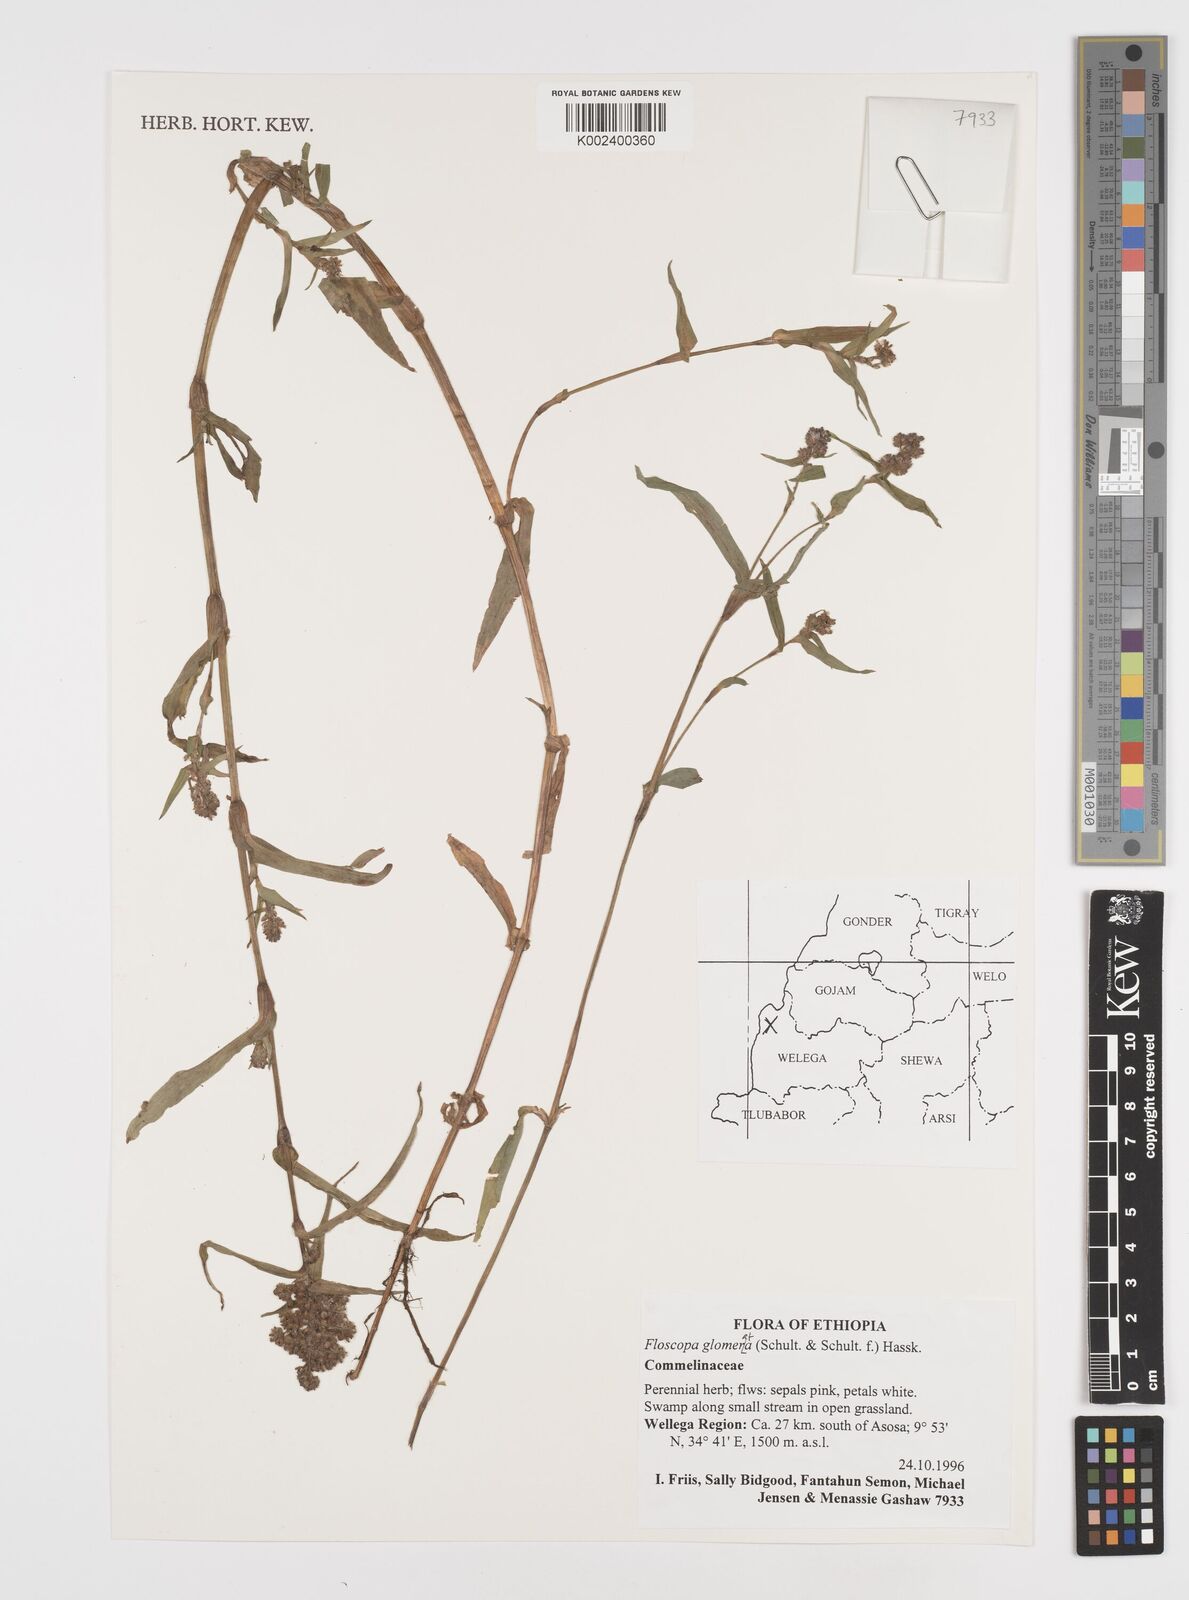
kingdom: Plantae
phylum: Tracheophyta
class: Liliopsida
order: Commelinales
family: Commelinaceae
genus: Floscopa
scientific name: Floscopa glomerata
